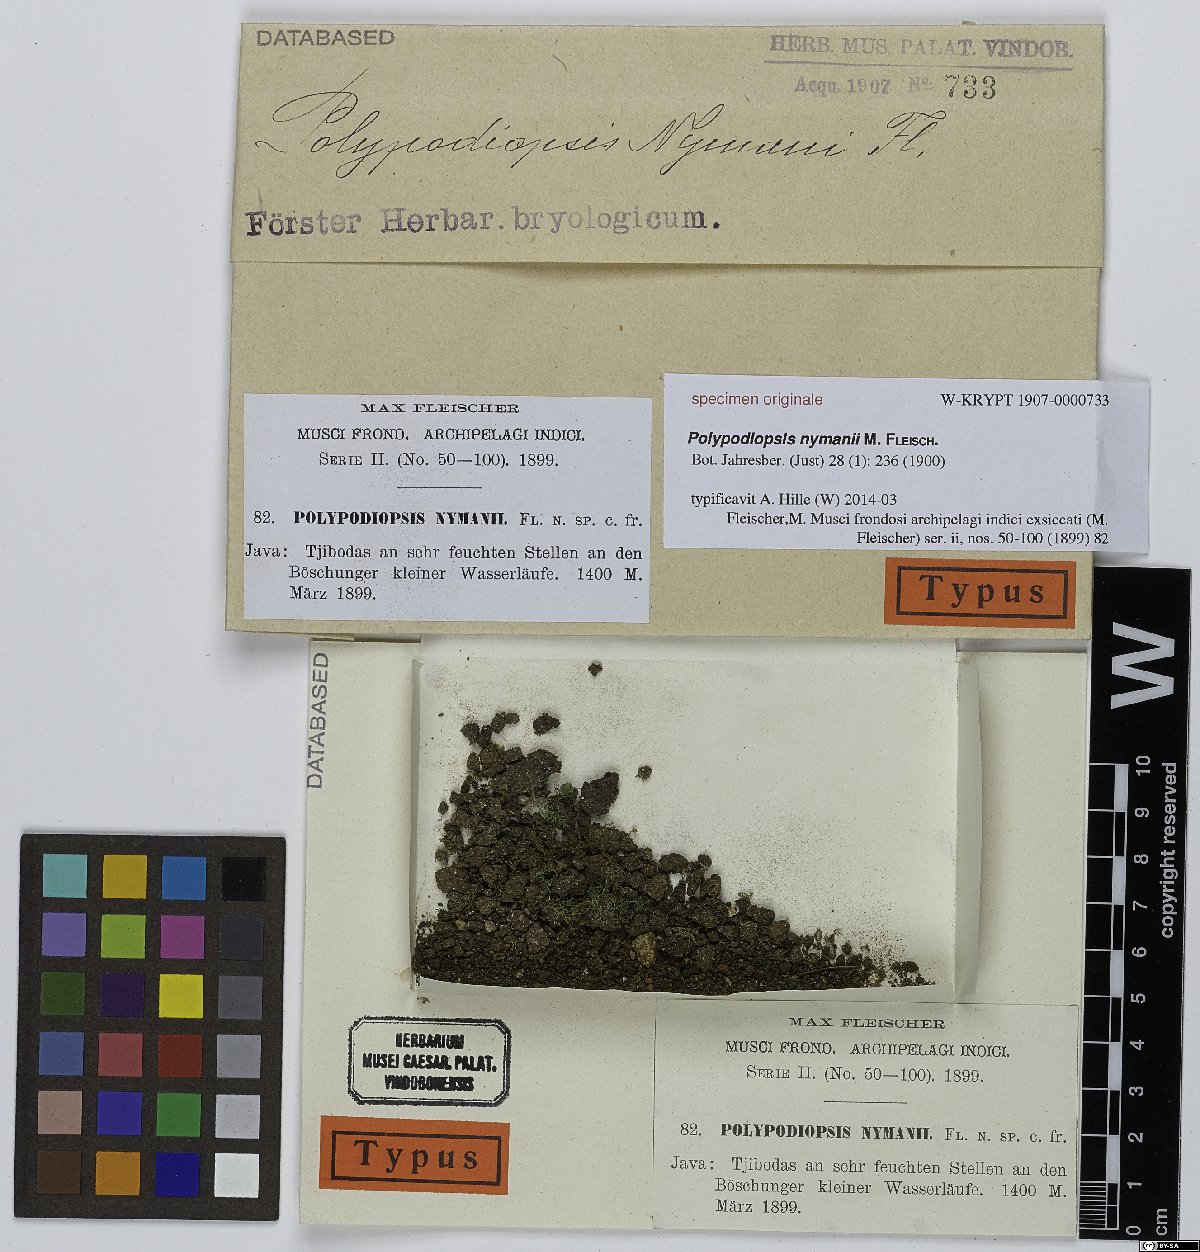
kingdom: Plantae
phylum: Tracheophyta
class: Polypodiopsida
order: Polypodiales
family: Polypodiaceae
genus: Selliguea
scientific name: Selliguea
